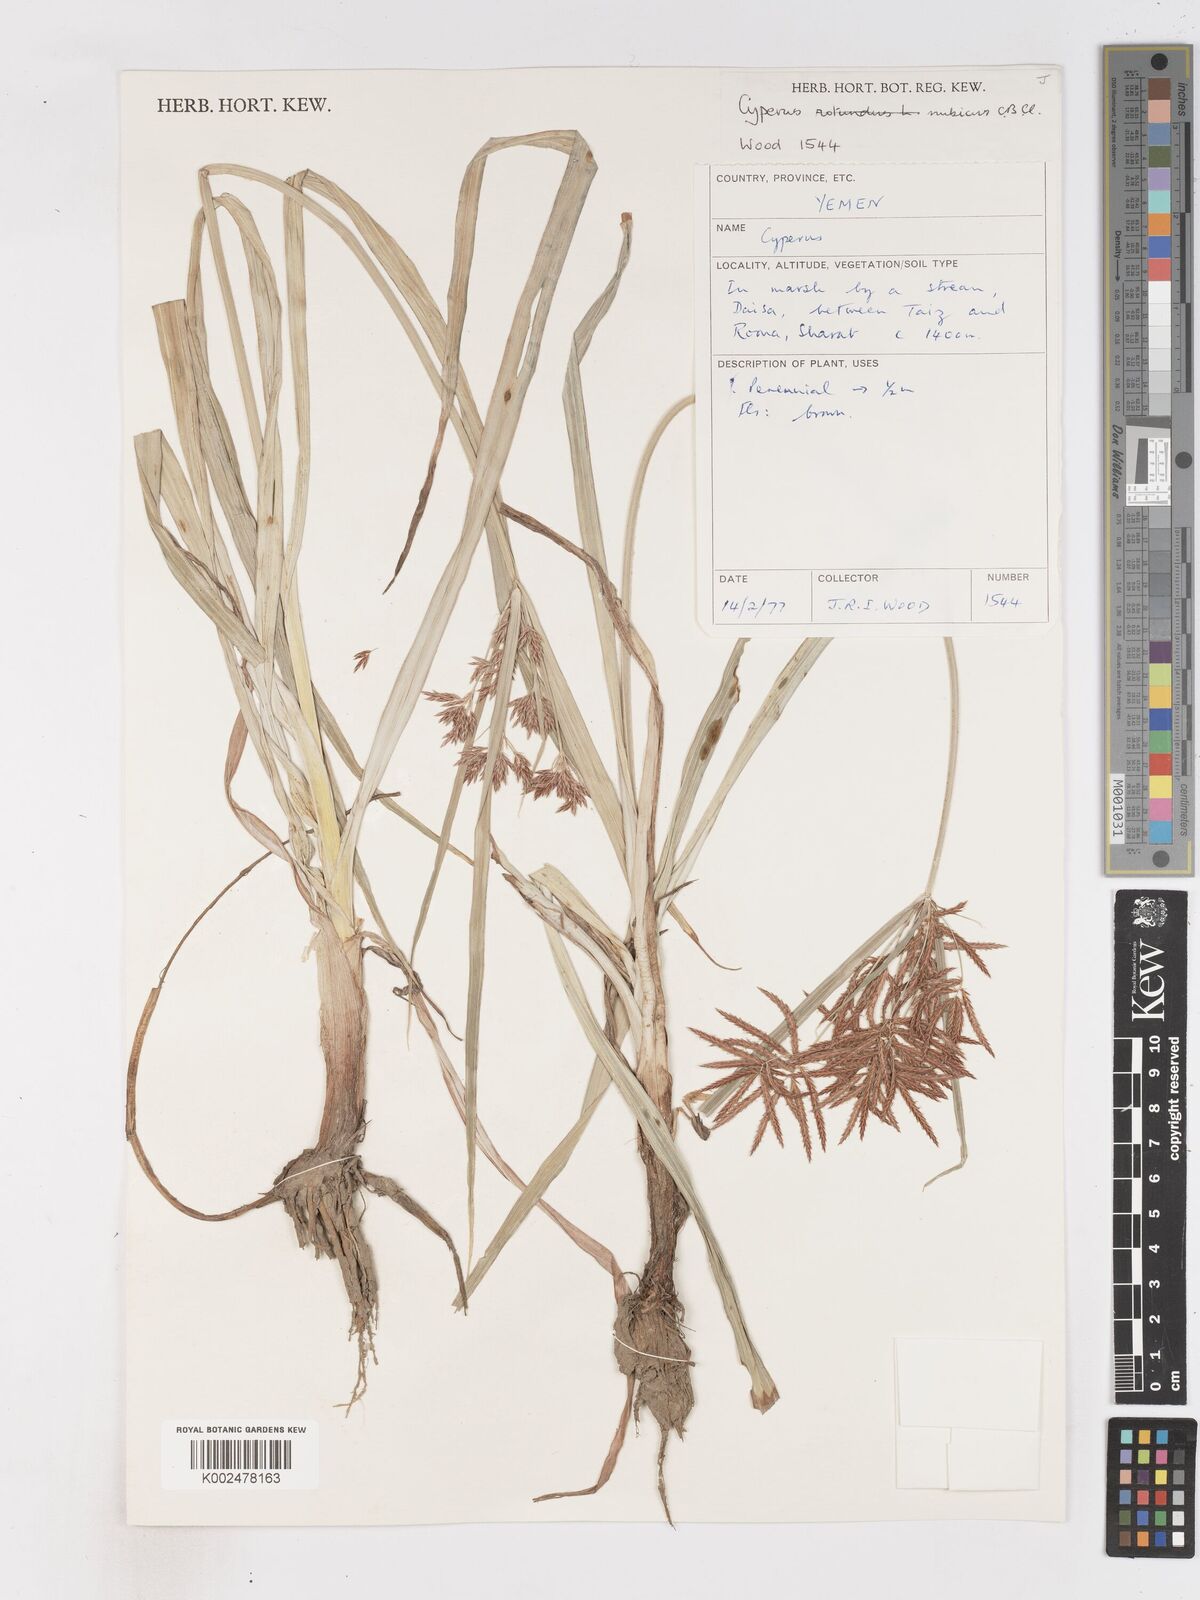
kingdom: Plantae
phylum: Tracheophyta
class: Liliopsida
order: Poales
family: Cyperaceae
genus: Cyperus
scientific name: Cyperus nubicus
